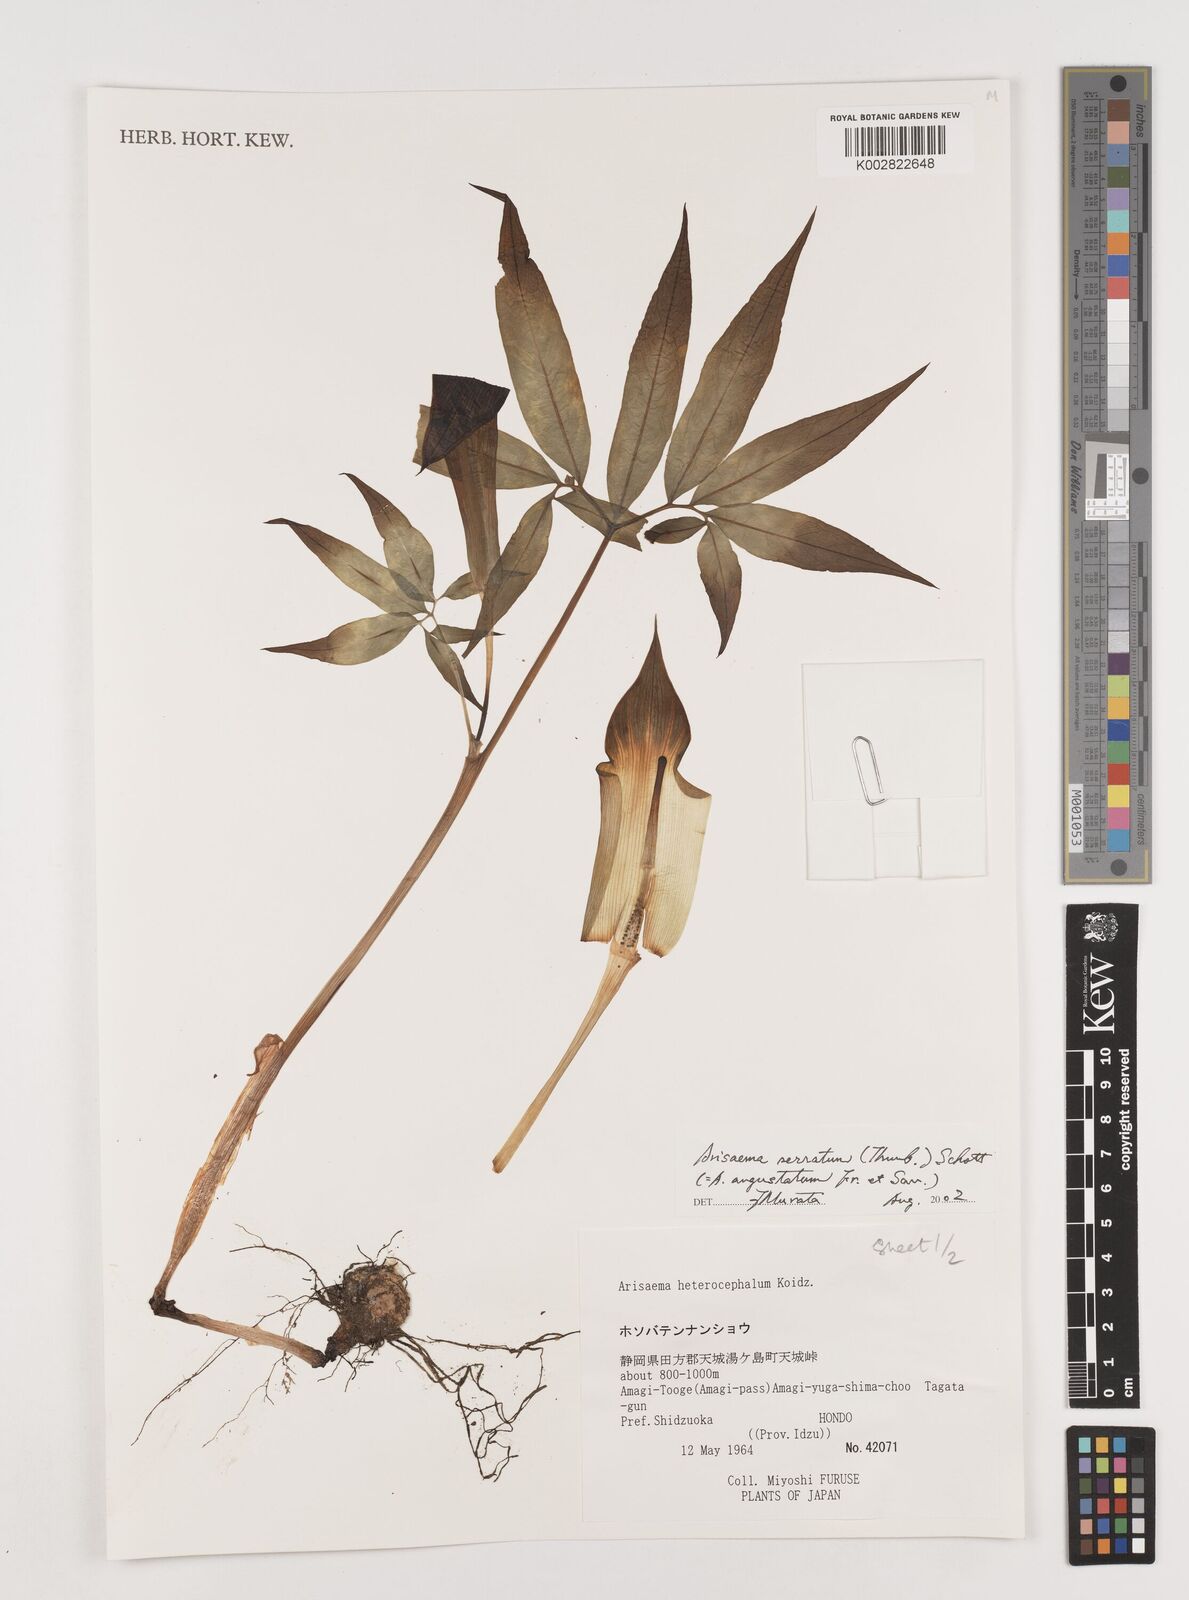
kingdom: Plantae
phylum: Tracheophyta
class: Liliopsida
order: Alismatales
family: Araceae
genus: Arisaema
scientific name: Arisaema serratum
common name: Japanese arisaema
